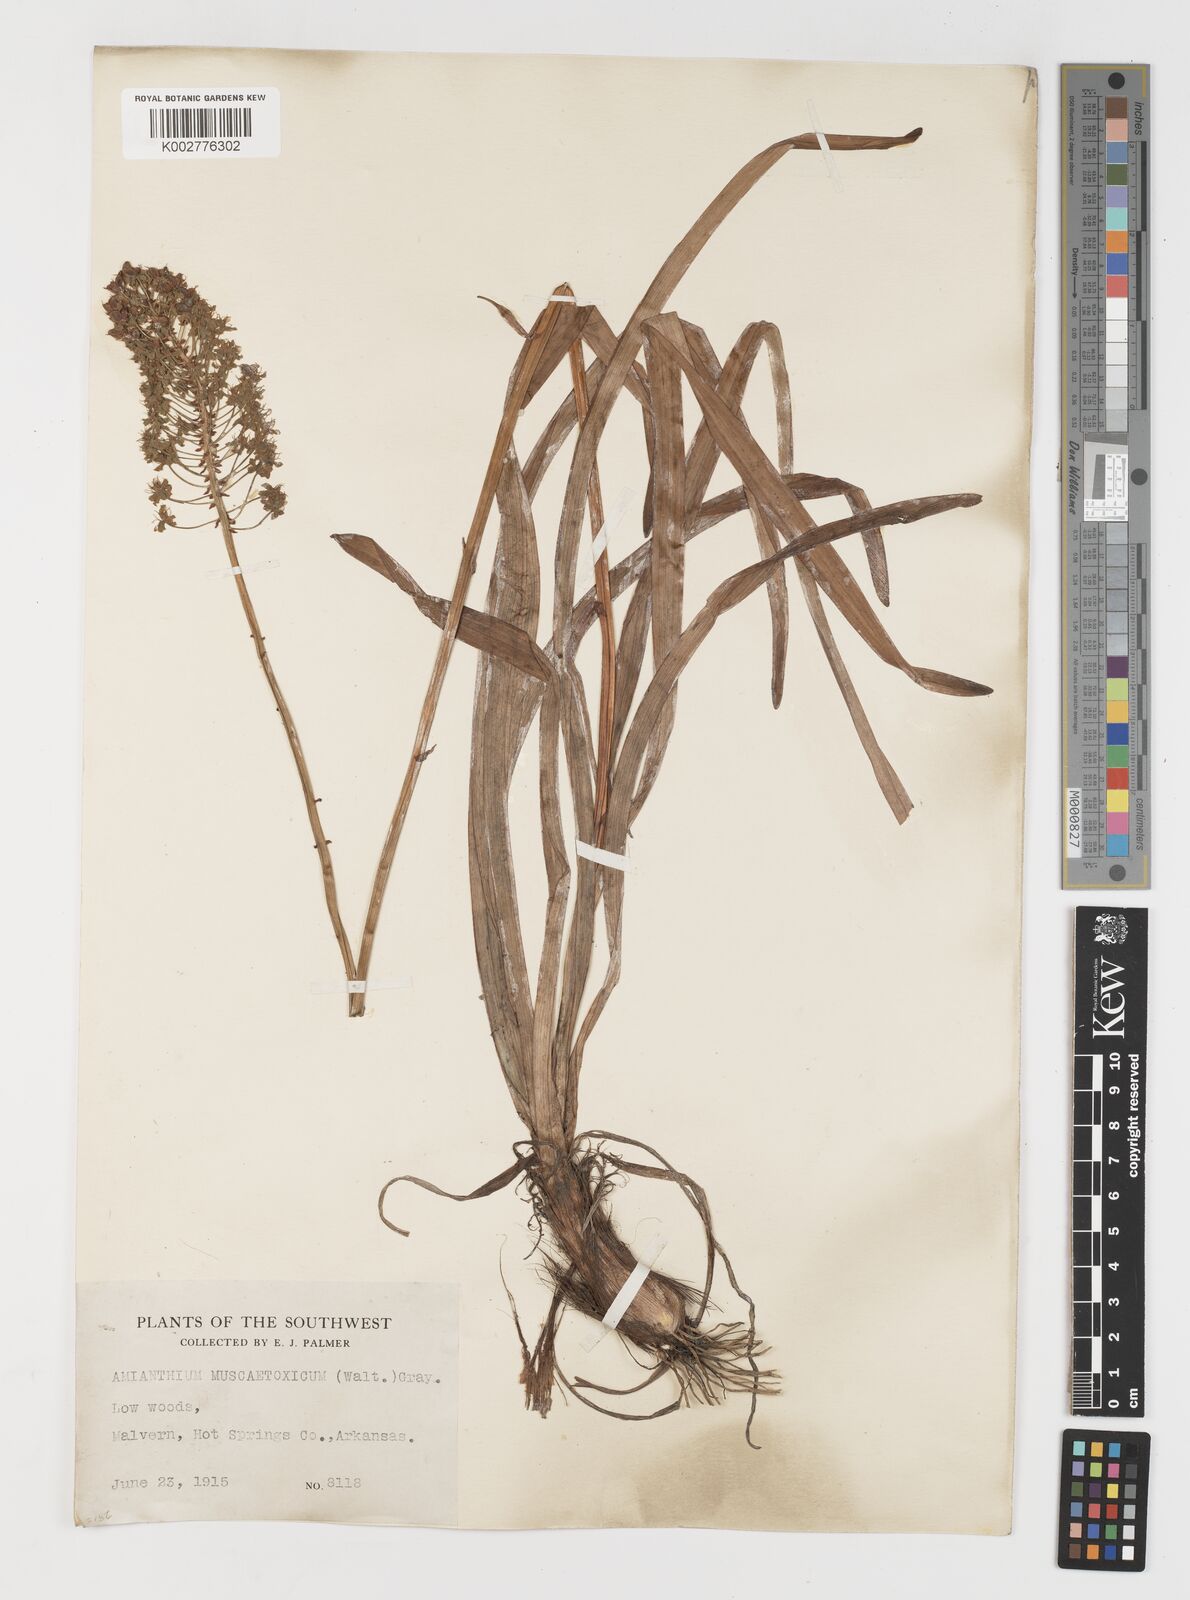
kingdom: Plantae
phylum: Tracheophyta
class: Liliopsida
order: Liliales
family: Melanthiaceae
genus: Amianthium
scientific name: Amianthium muscitoxicum
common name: Fly-poison
